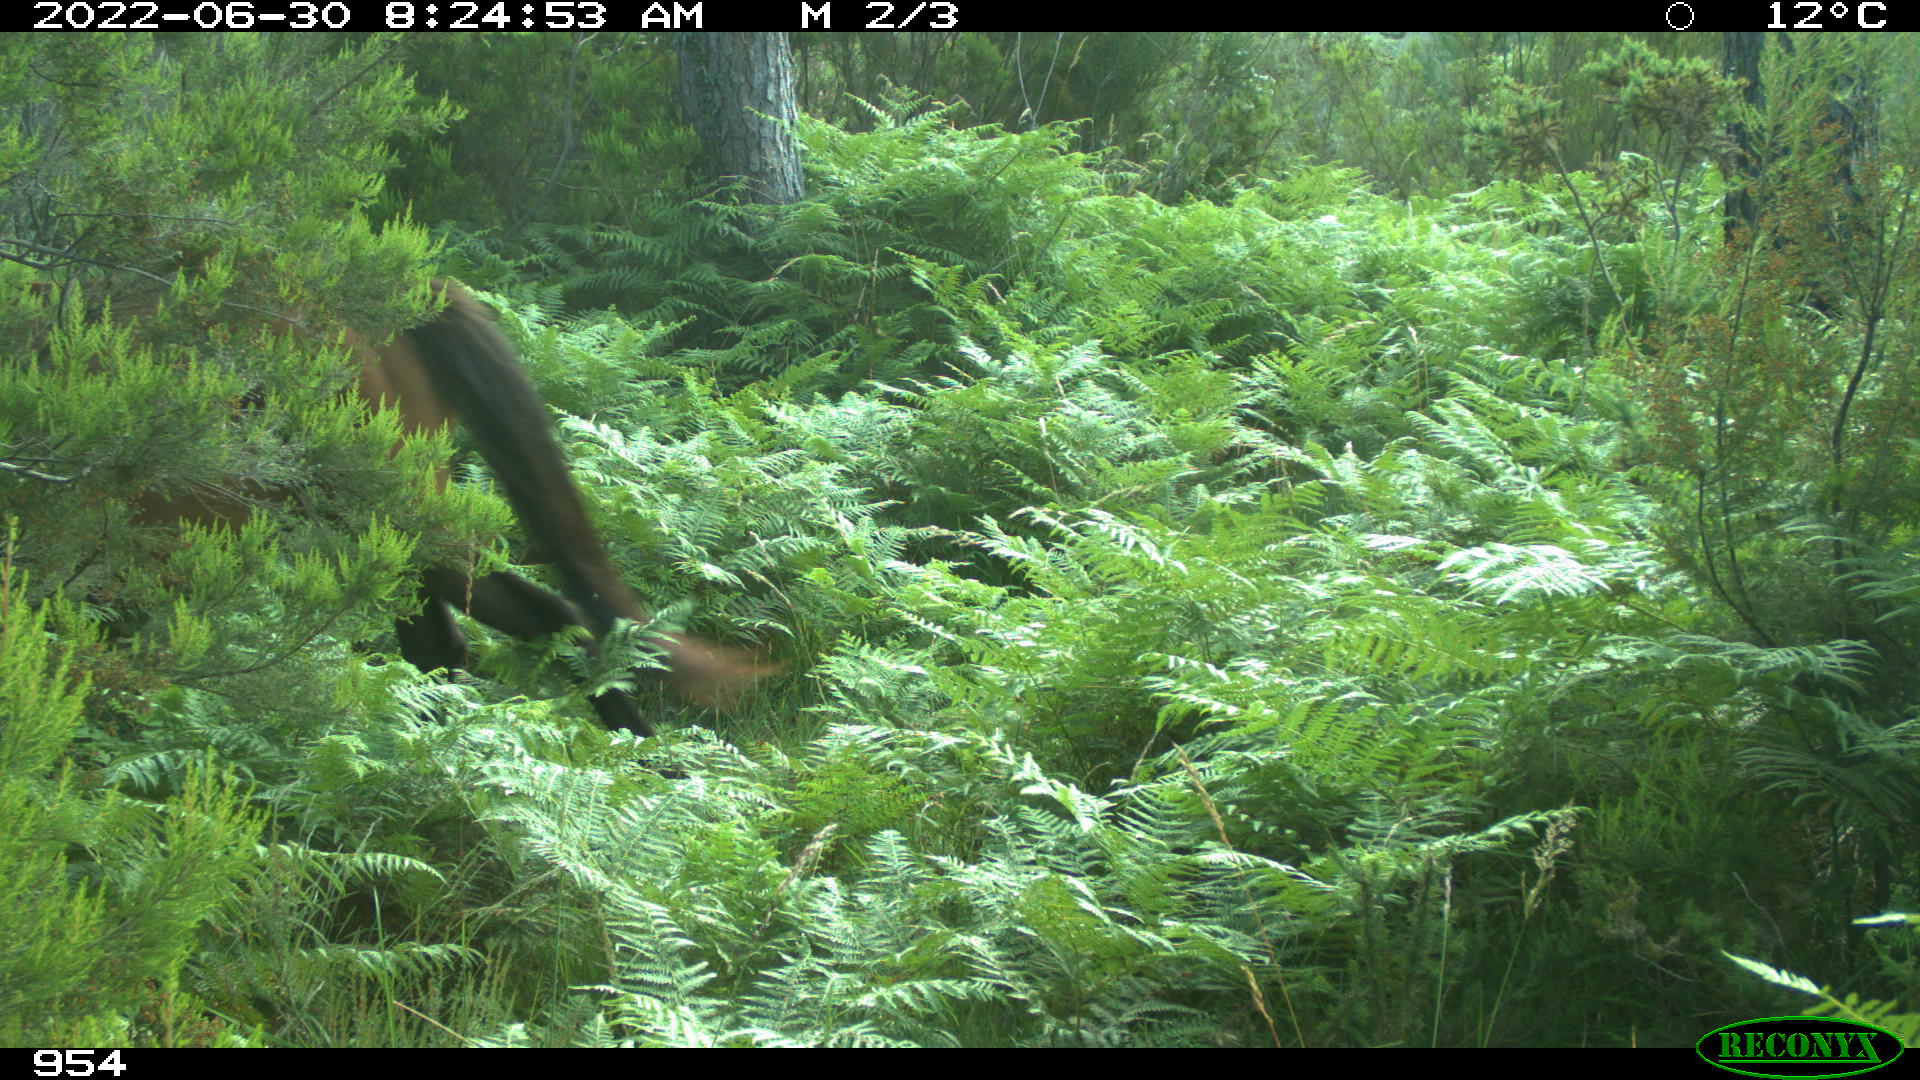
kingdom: Animalia
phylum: Chordata
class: Mammalia
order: Perissodactyla
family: Equidae
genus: Equus
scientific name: Equus caballus
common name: Horse
